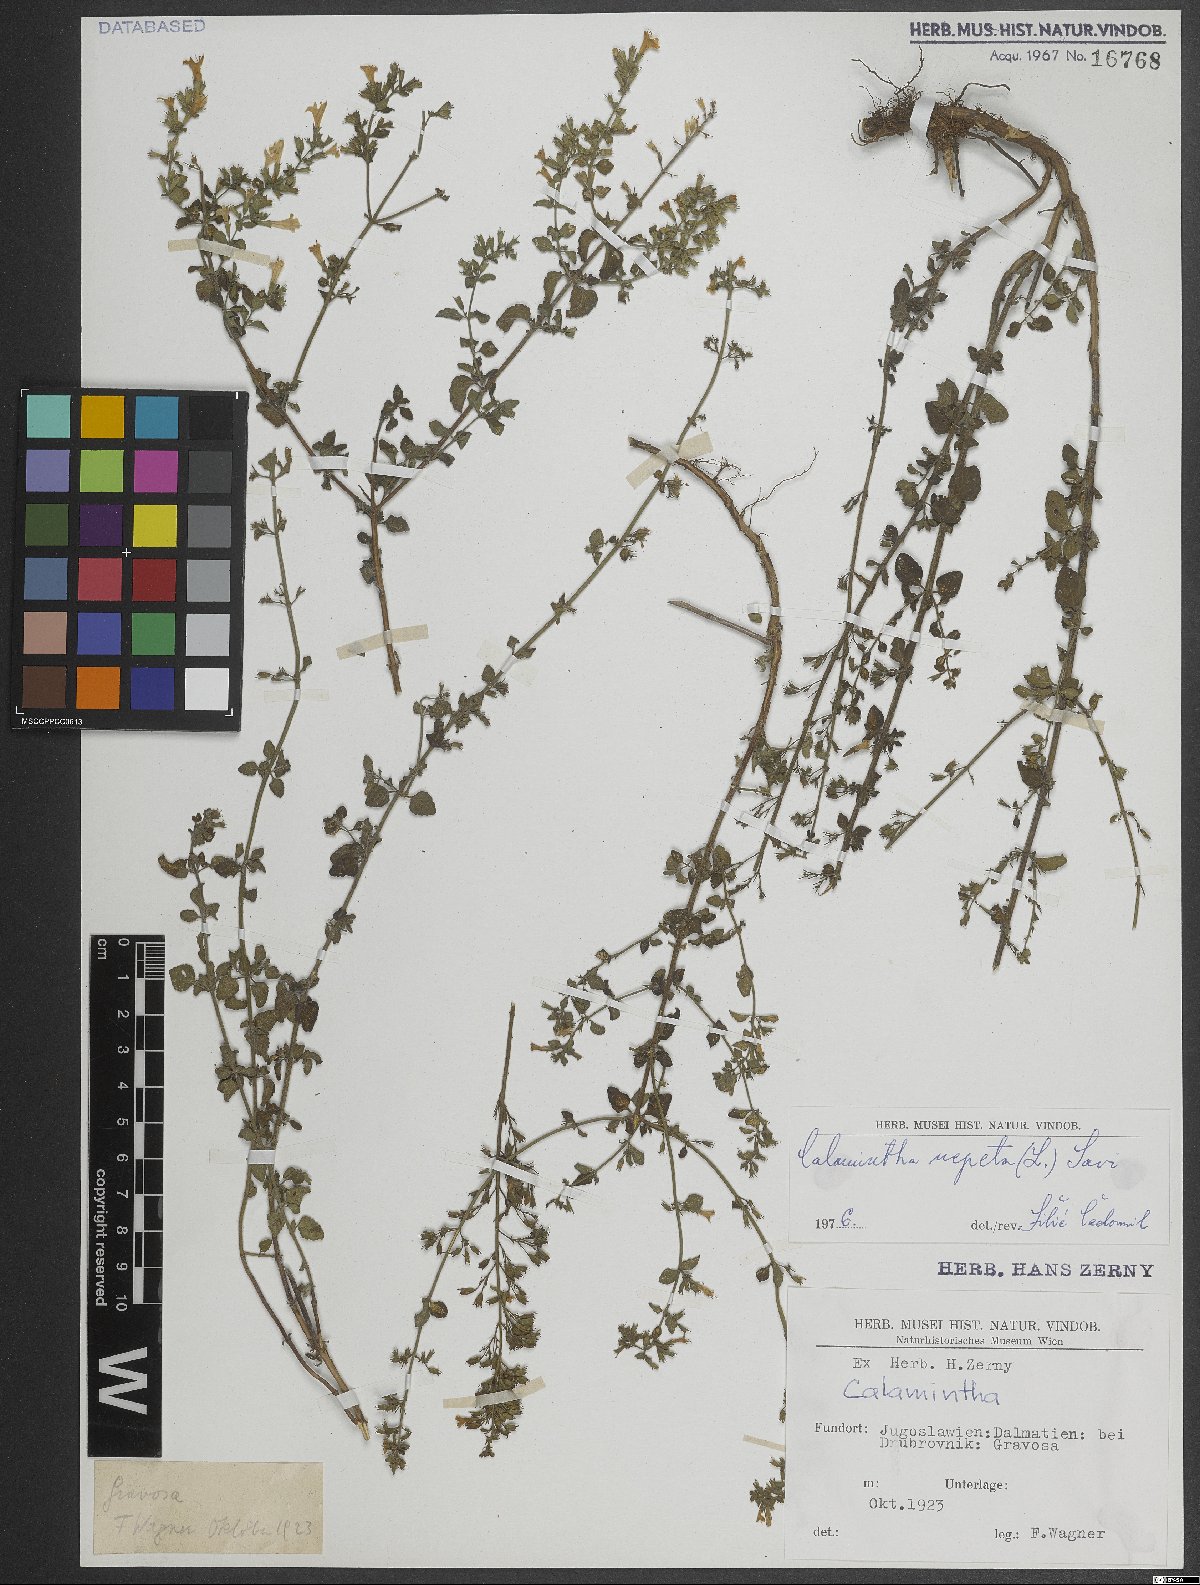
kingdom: Plantae
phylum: Tracheophyta
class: Magnoliopsida
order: Lamiales
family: Lamiaceae
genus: Clinopodium
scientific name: Clinopodium nepeta
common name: Lesser calamint
